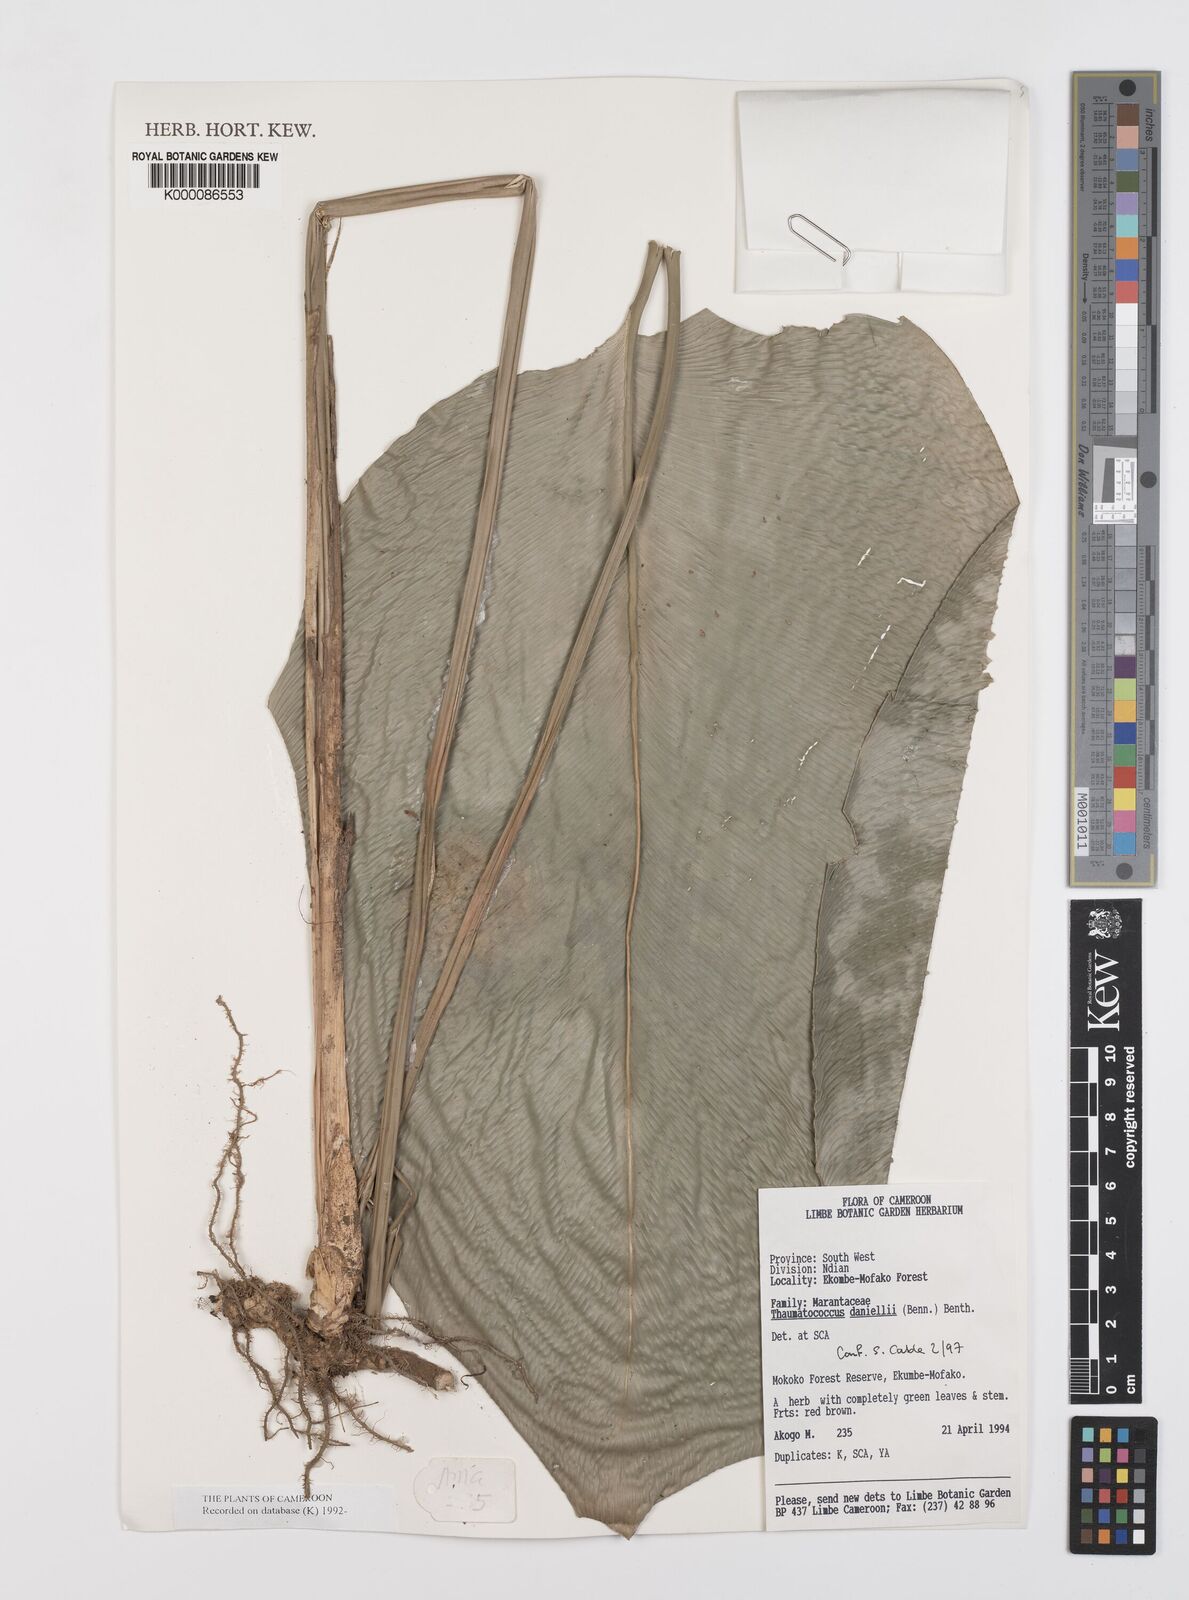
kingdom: Plantae
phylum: Tracheophyta
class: Liliopsida
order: Zingiberales
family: Marantaceae
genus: Thaumatococcus
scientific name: Thaumatococcus
